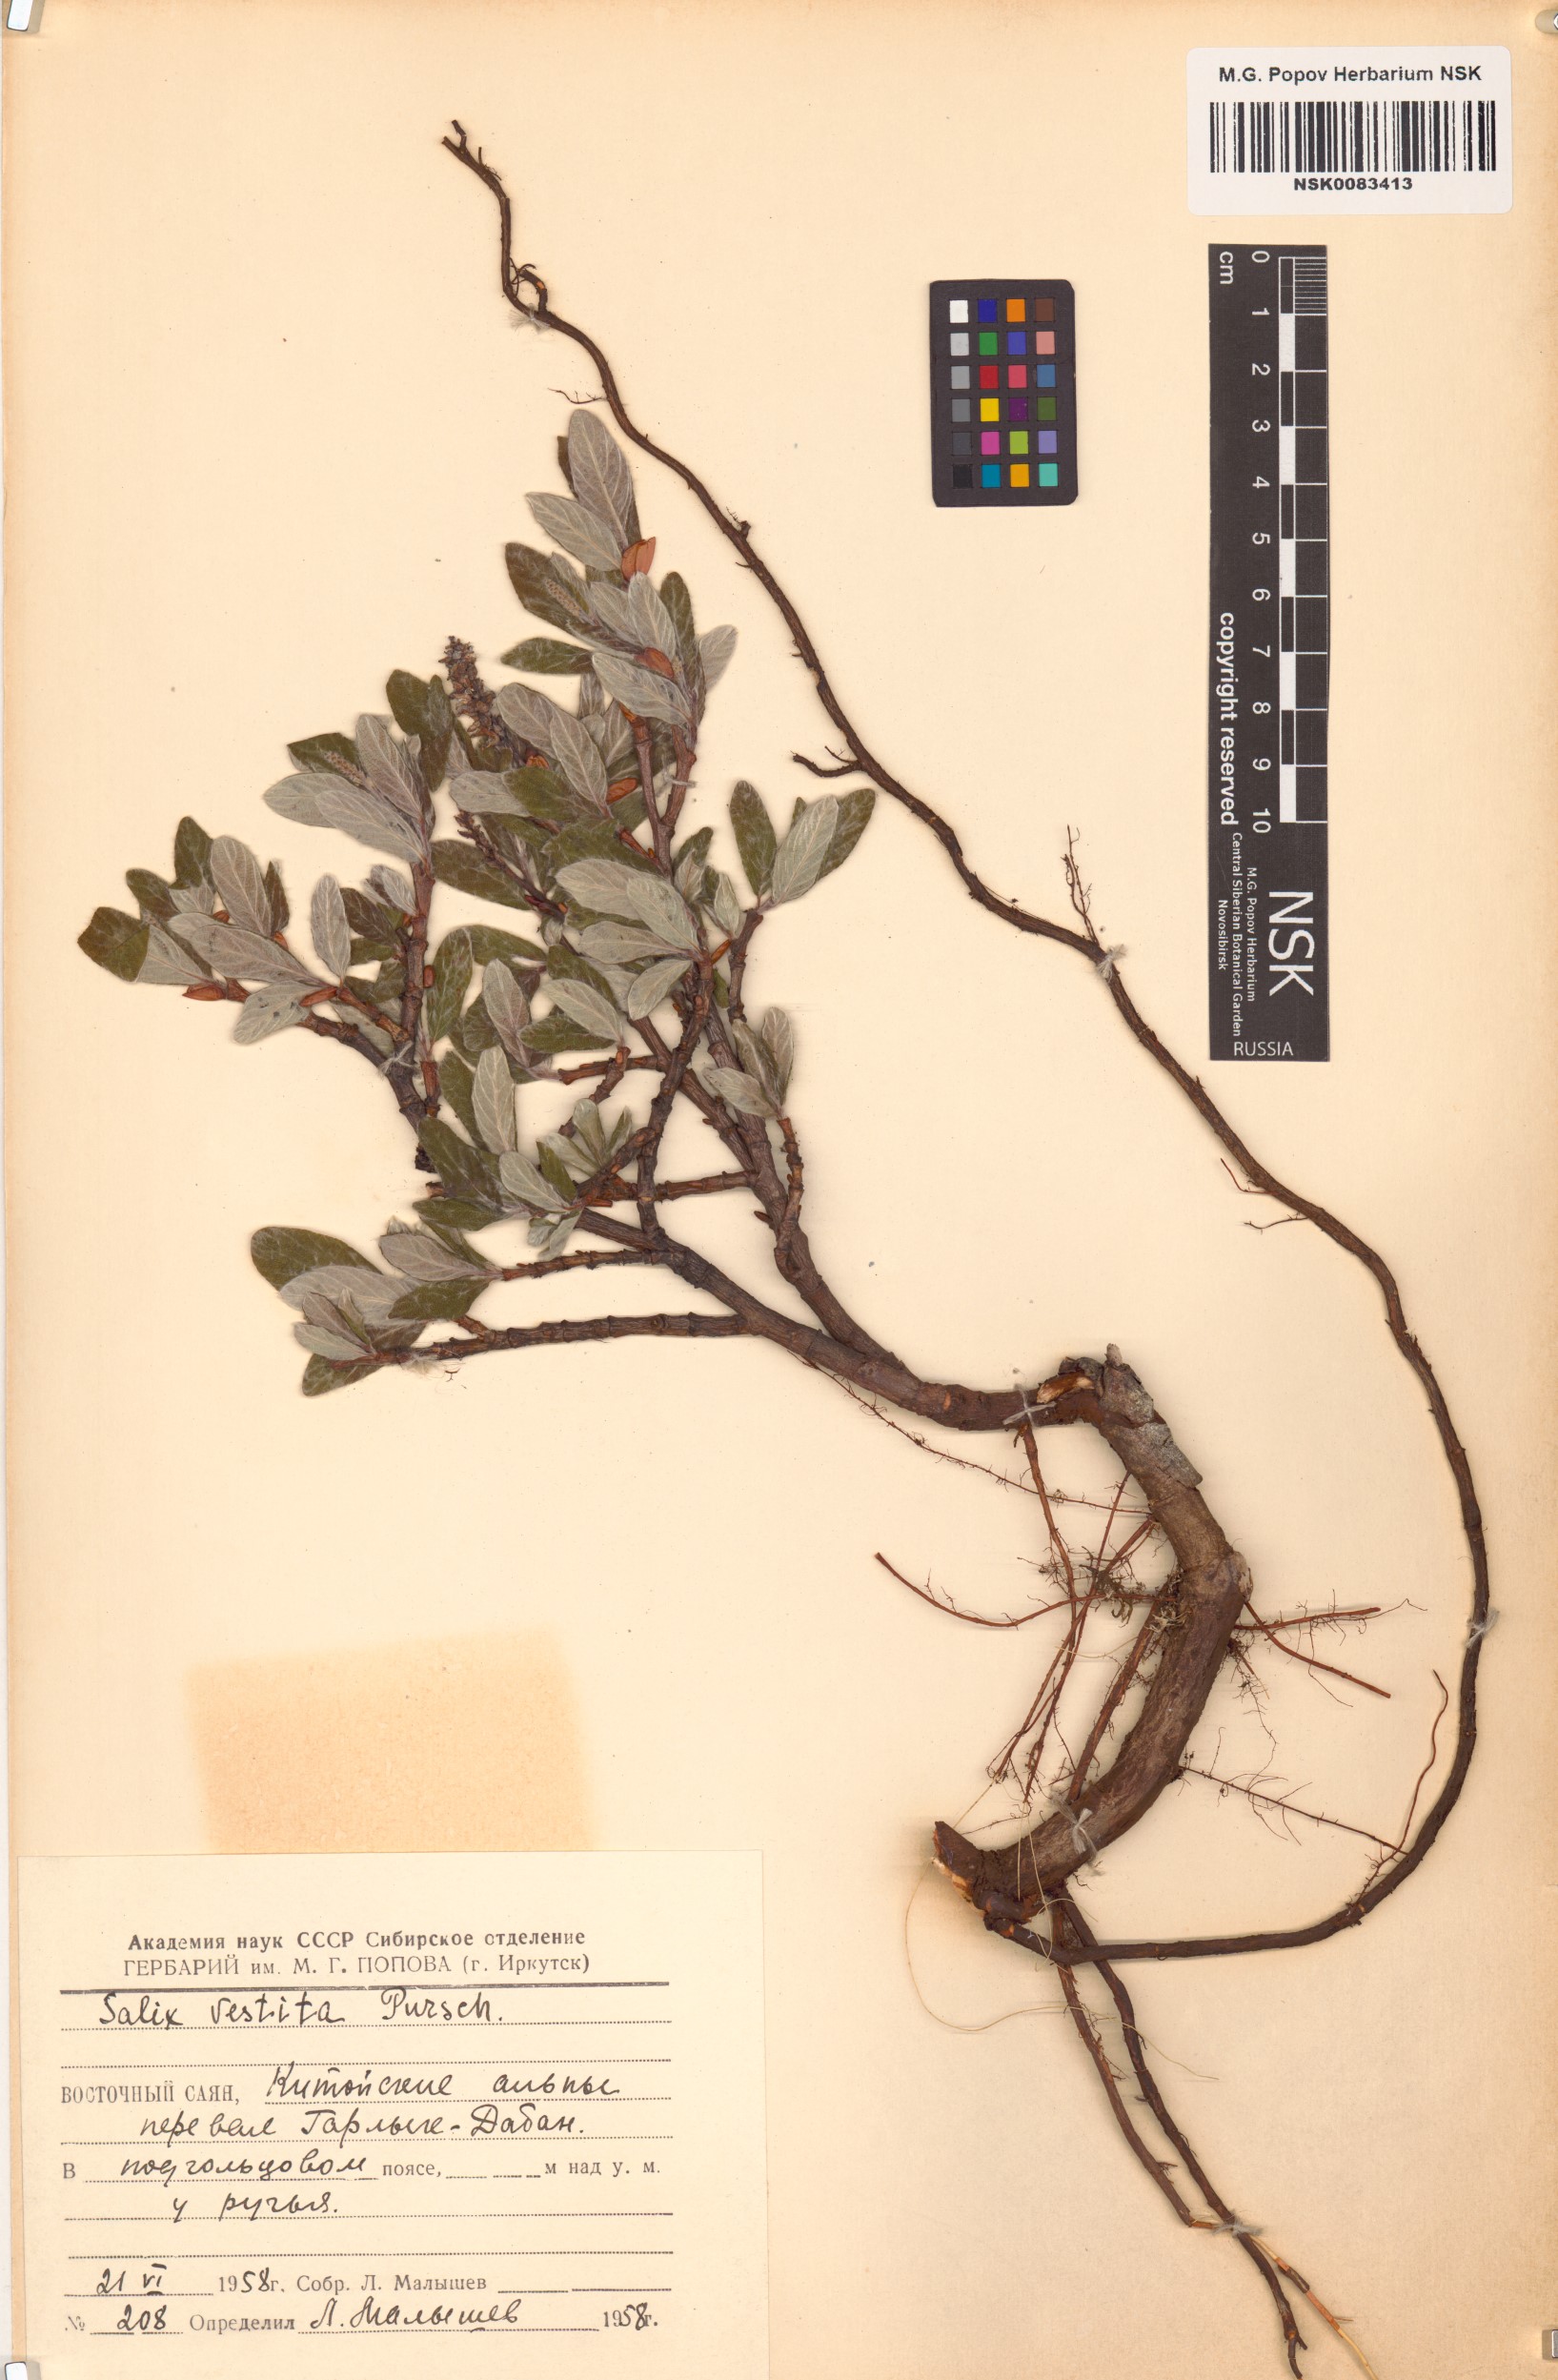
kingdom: Plantae
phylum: Tracheophyta
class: Magnoliopsida
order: Malpighiales
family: Salicaceae
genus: Salix
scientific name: Salix vestita
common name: Hairy willow
